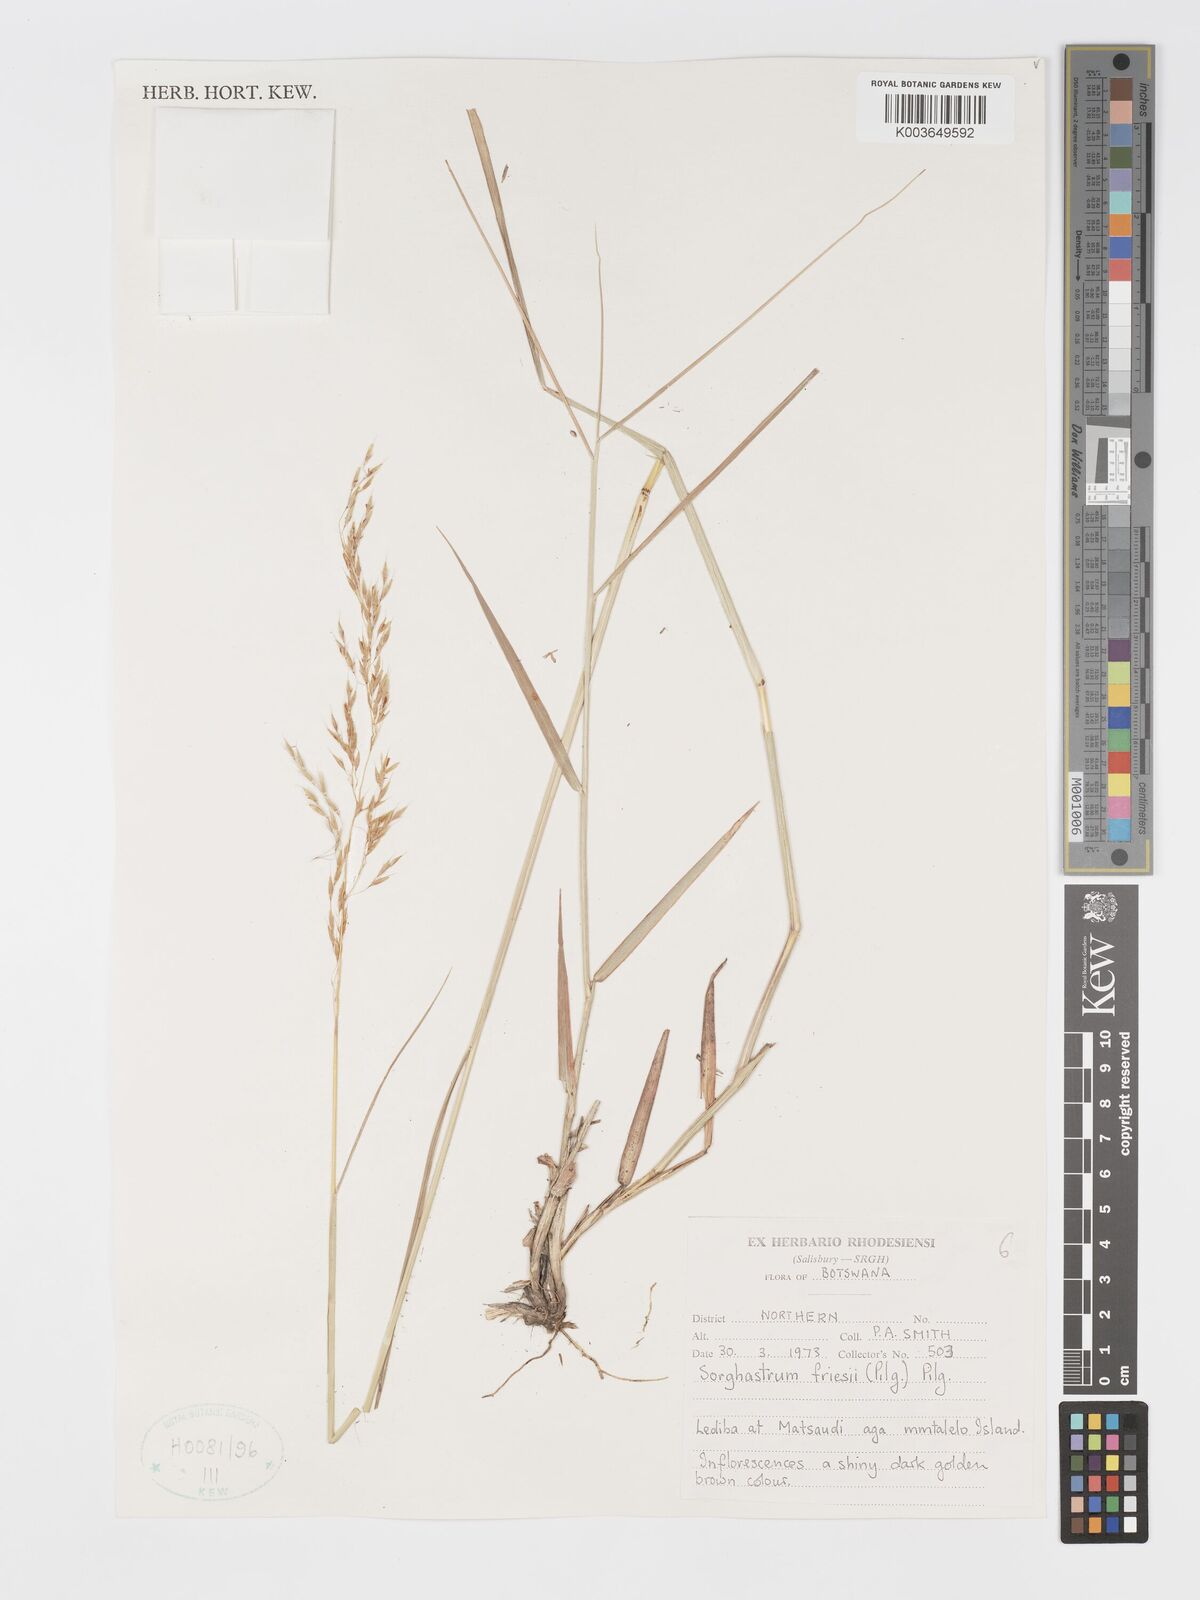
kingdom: Plantae
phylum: Tracheophyta
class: Liliopsida
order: Poales
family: Poaceae
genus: Sorghastrum
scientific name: Sorghastrum nudipes
